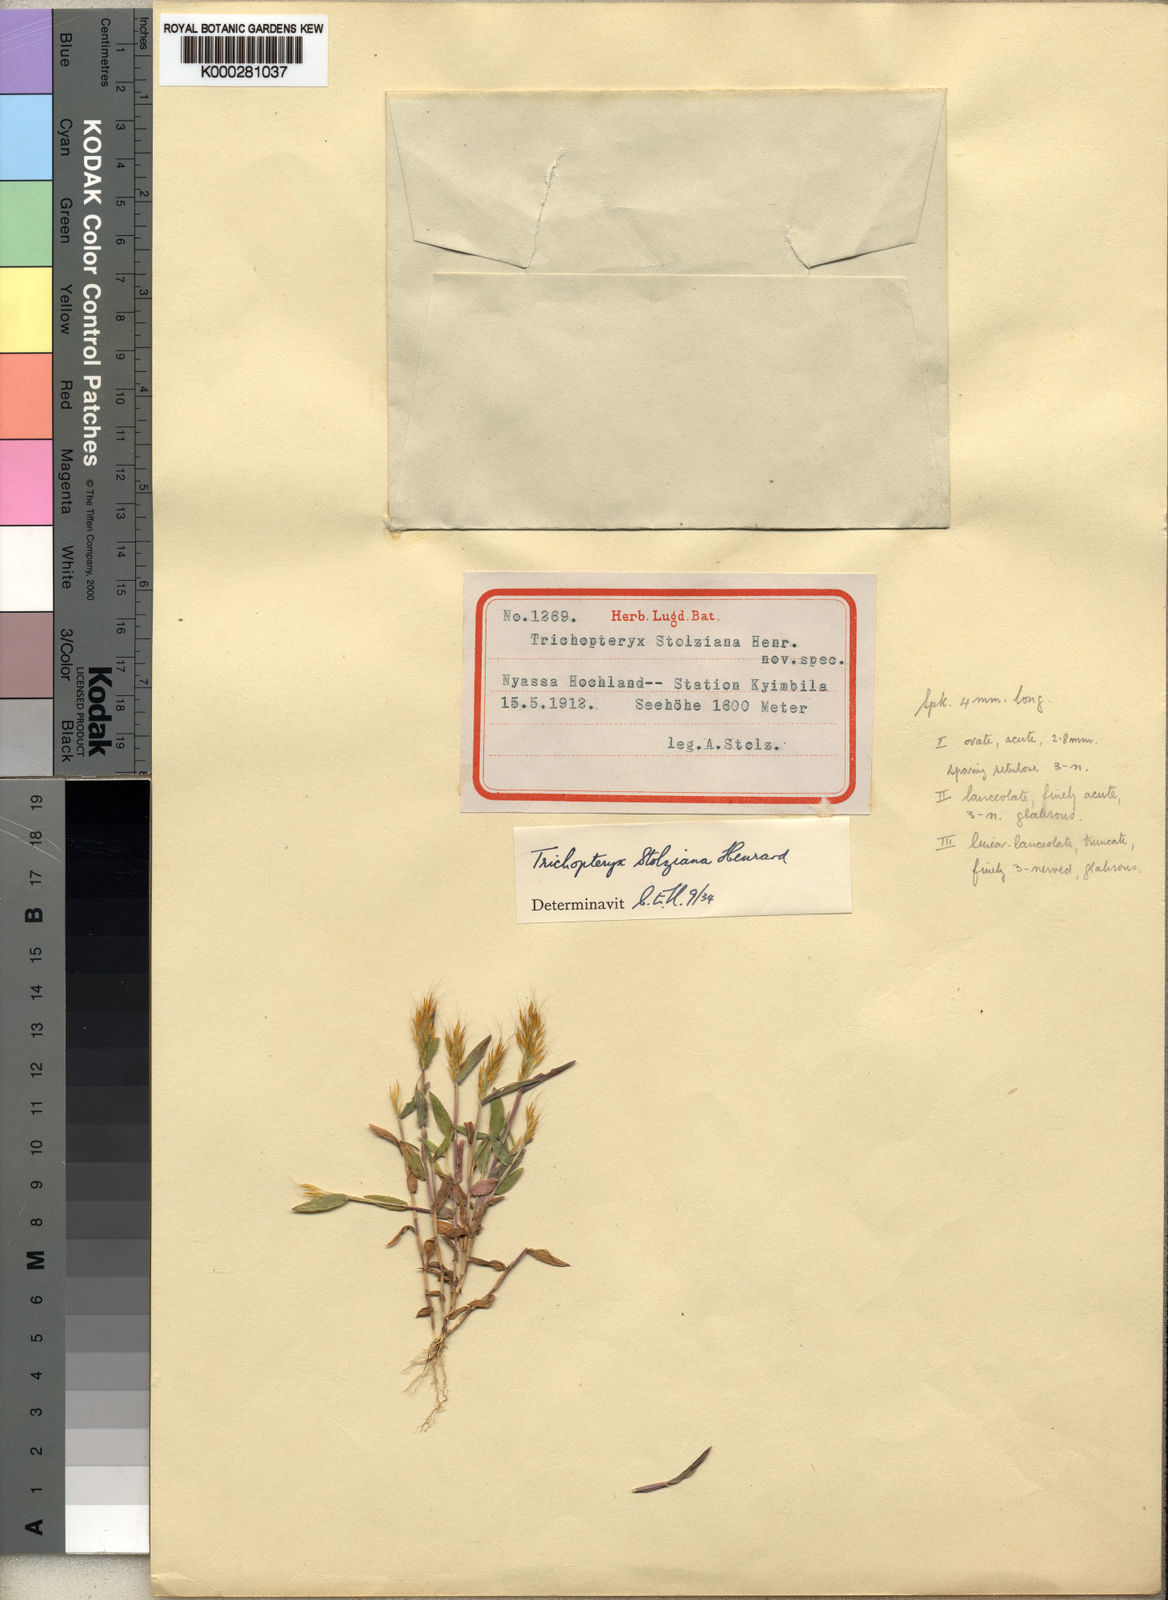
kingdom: Plantae
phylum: Tracheophyta
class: Liliopsida
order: Poales
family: Poaceae
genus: Trichopteryx
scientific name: Trichopteryx stolziana
